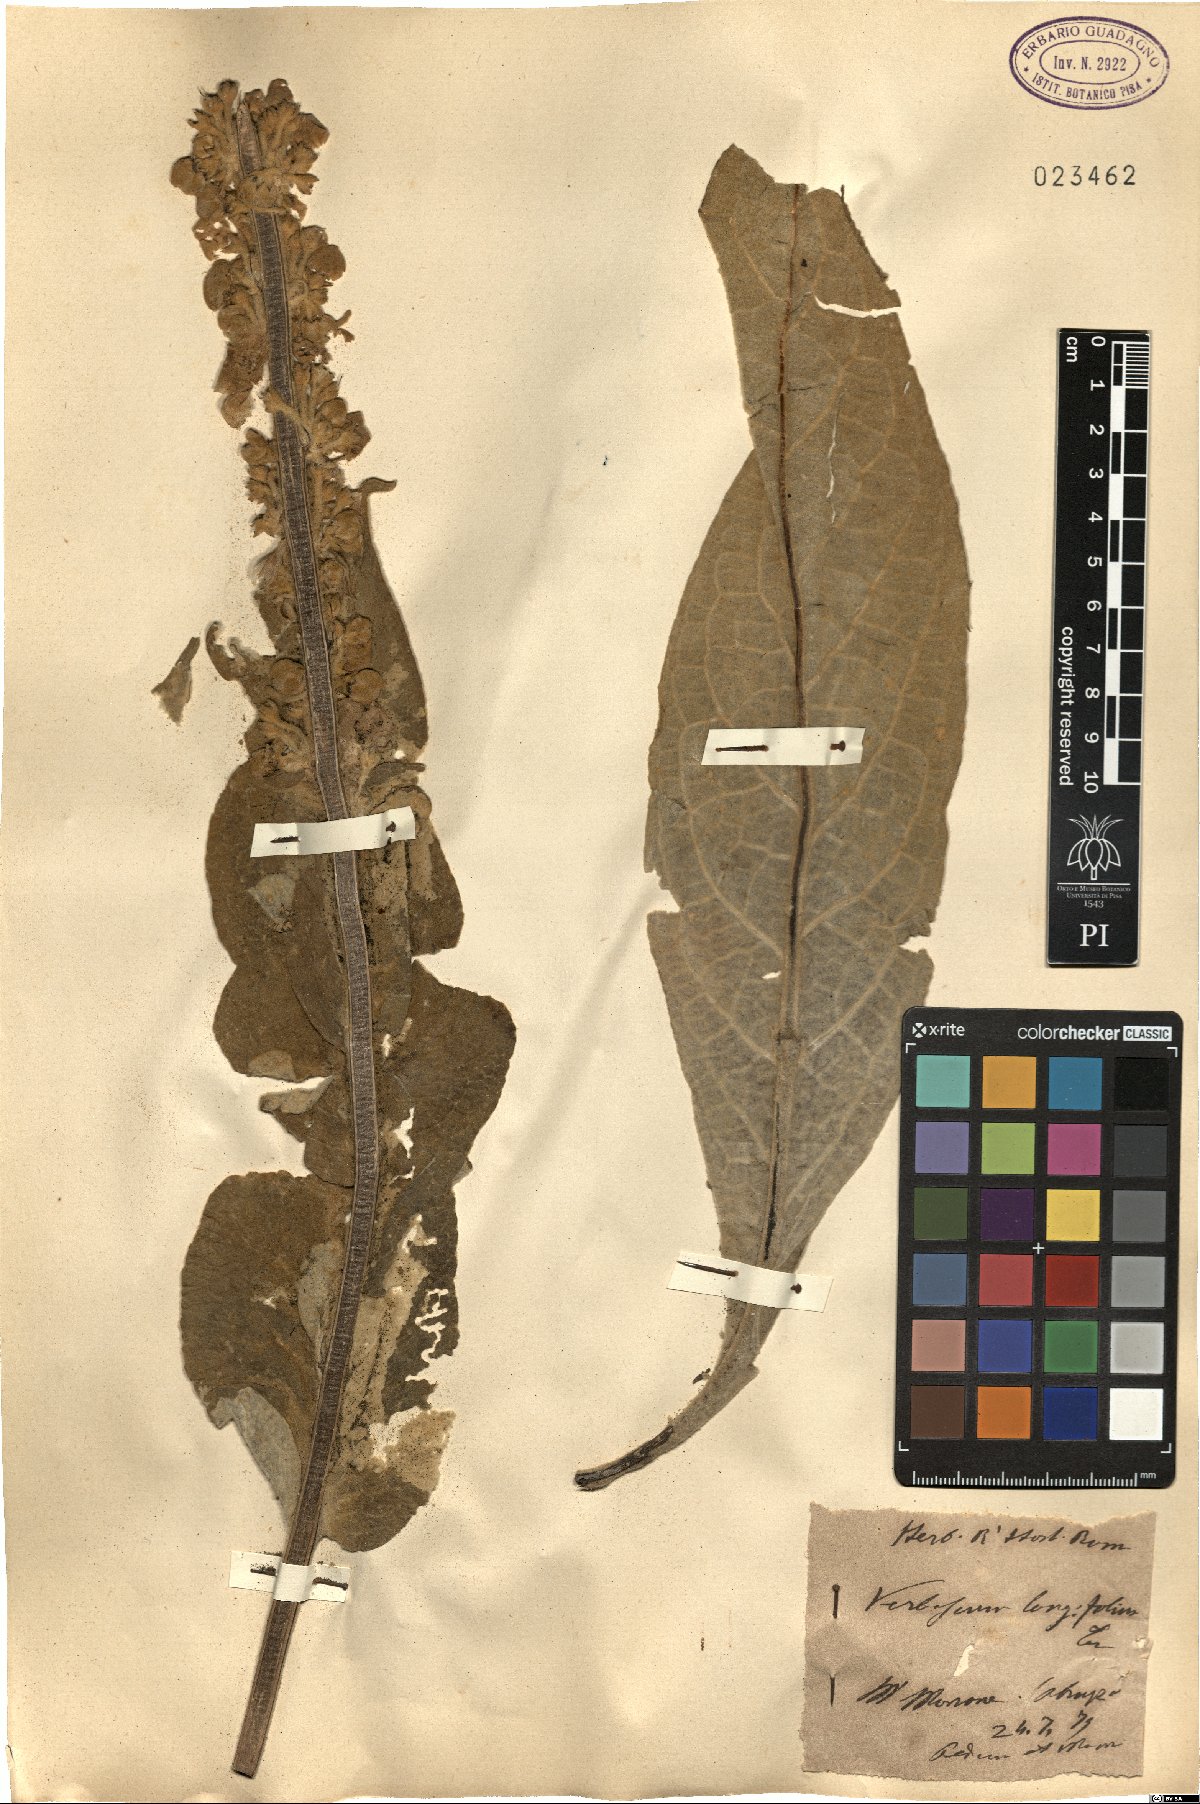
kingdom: Plantae
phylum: Tracheophyta
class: Magnoliopsida
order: Lamiales
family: Scrophulariaceae
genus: Verbascum
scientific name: Verbascum longifolium
